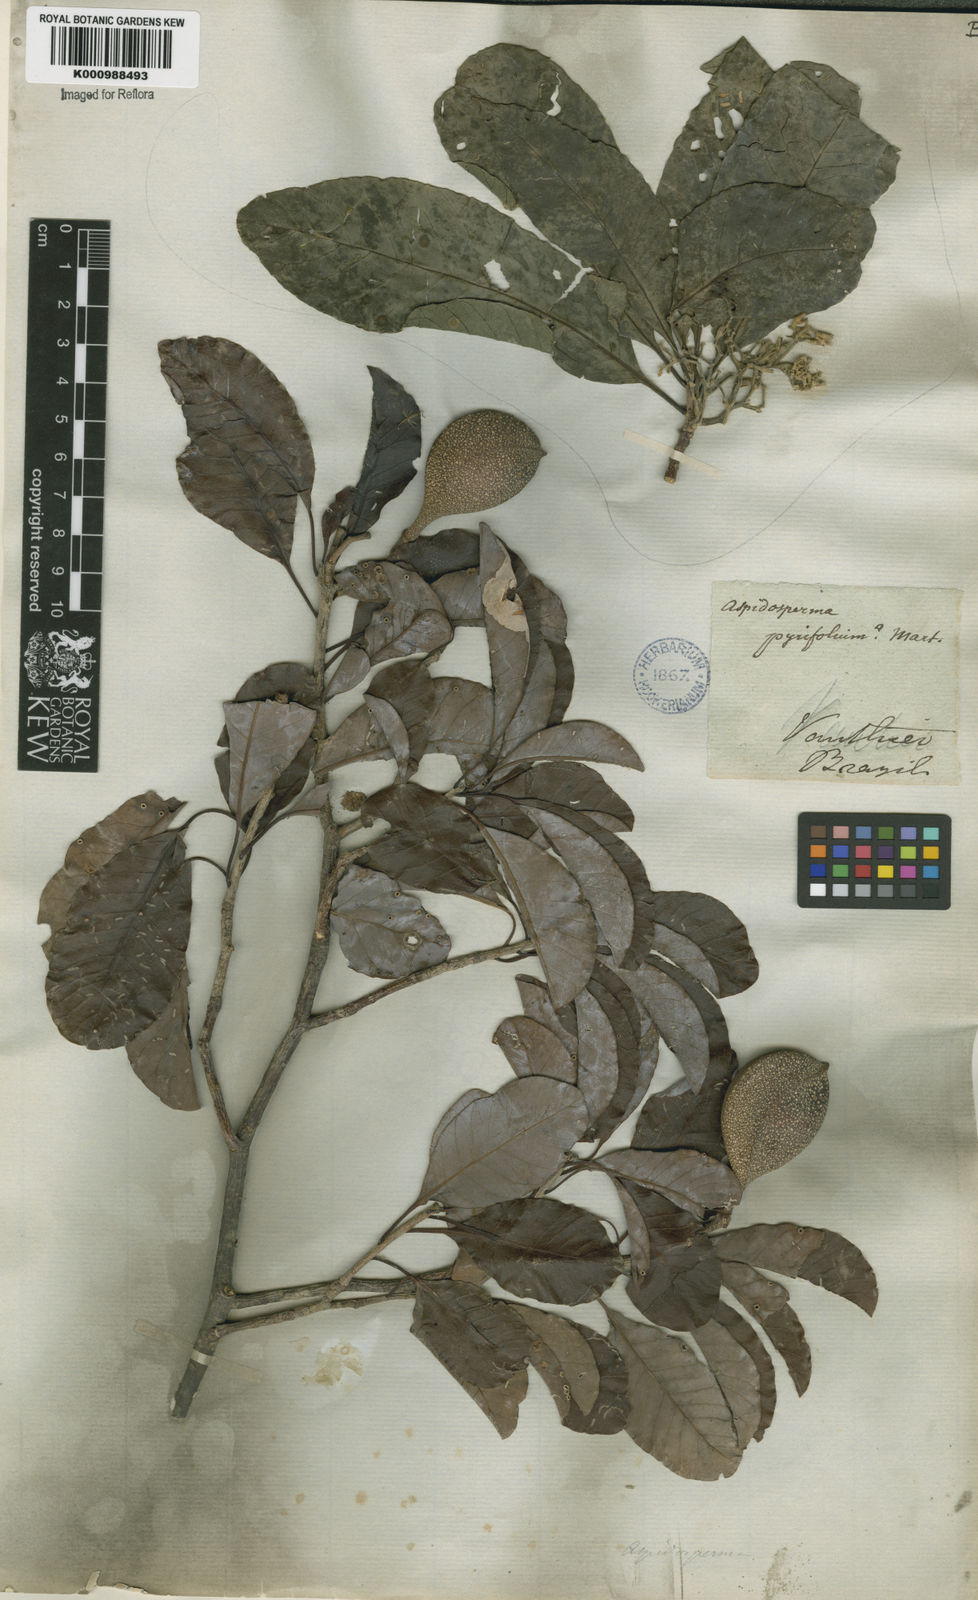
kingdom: Plantae
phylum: Tracheophyta
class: Magnoliopsida
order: Gentianales
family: Apocynaceae
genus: Aspidosperma
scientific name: Aspidosperma pyrifolium
